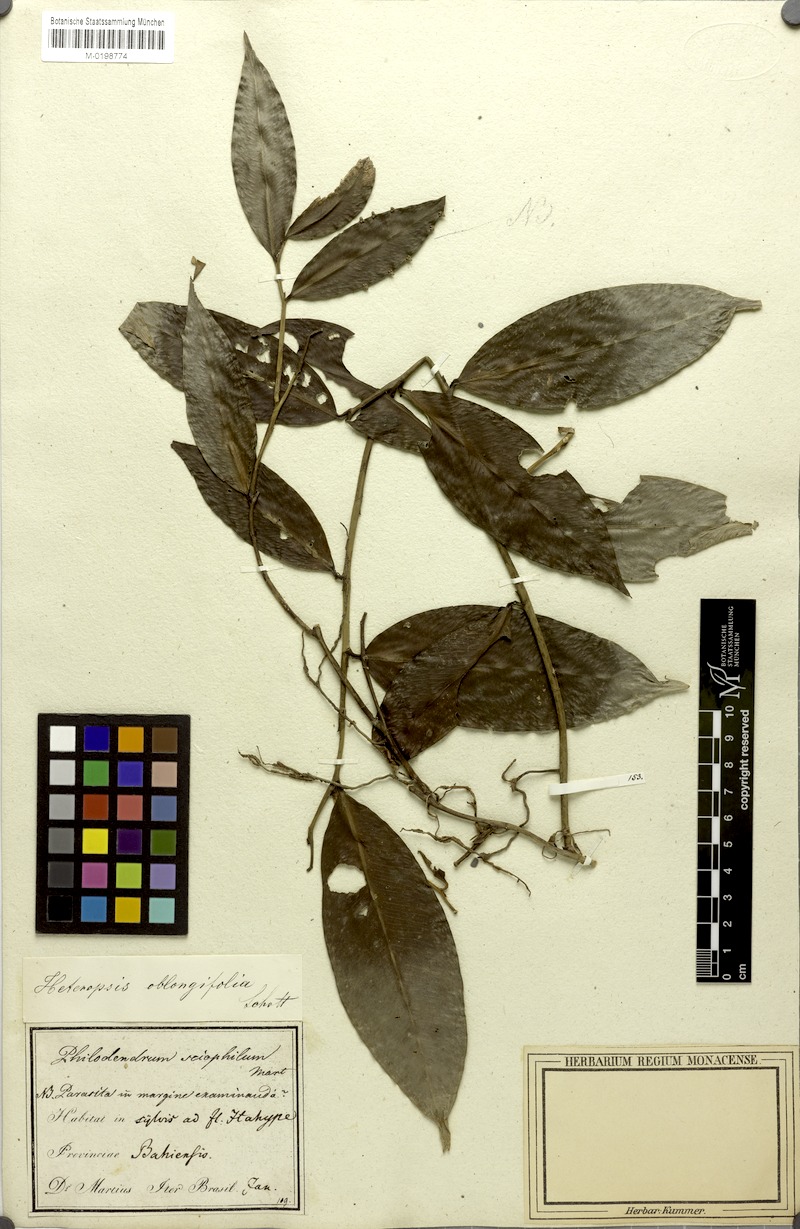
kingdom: Plantae
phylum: Tracheophyta
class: Liliopsida
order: Alismatales
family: Araceae
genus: Heteropsis
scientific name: Heteropsis oblongifolia
